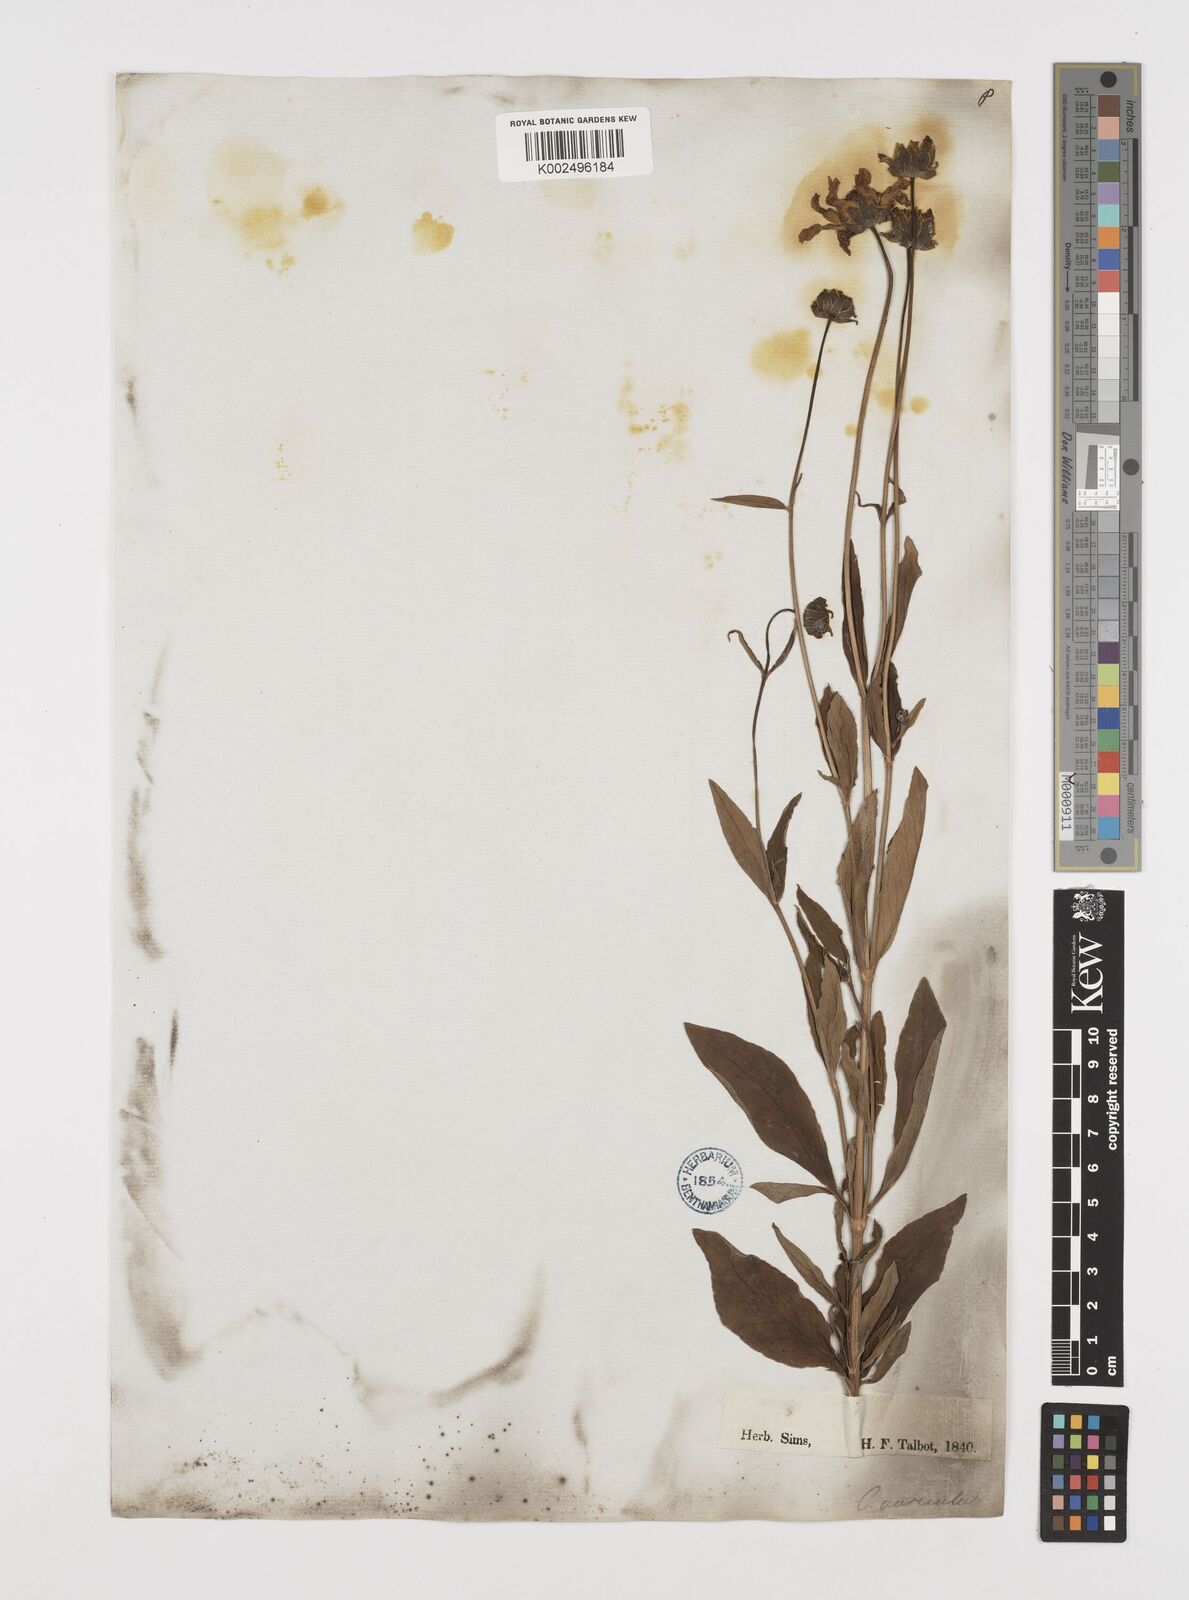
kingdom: Plantae
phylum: Tracheophyta
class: Magnoliopsida
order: Asterales
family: Asteraceae
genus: Coreopsis
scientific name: Coreopsis pubescens
